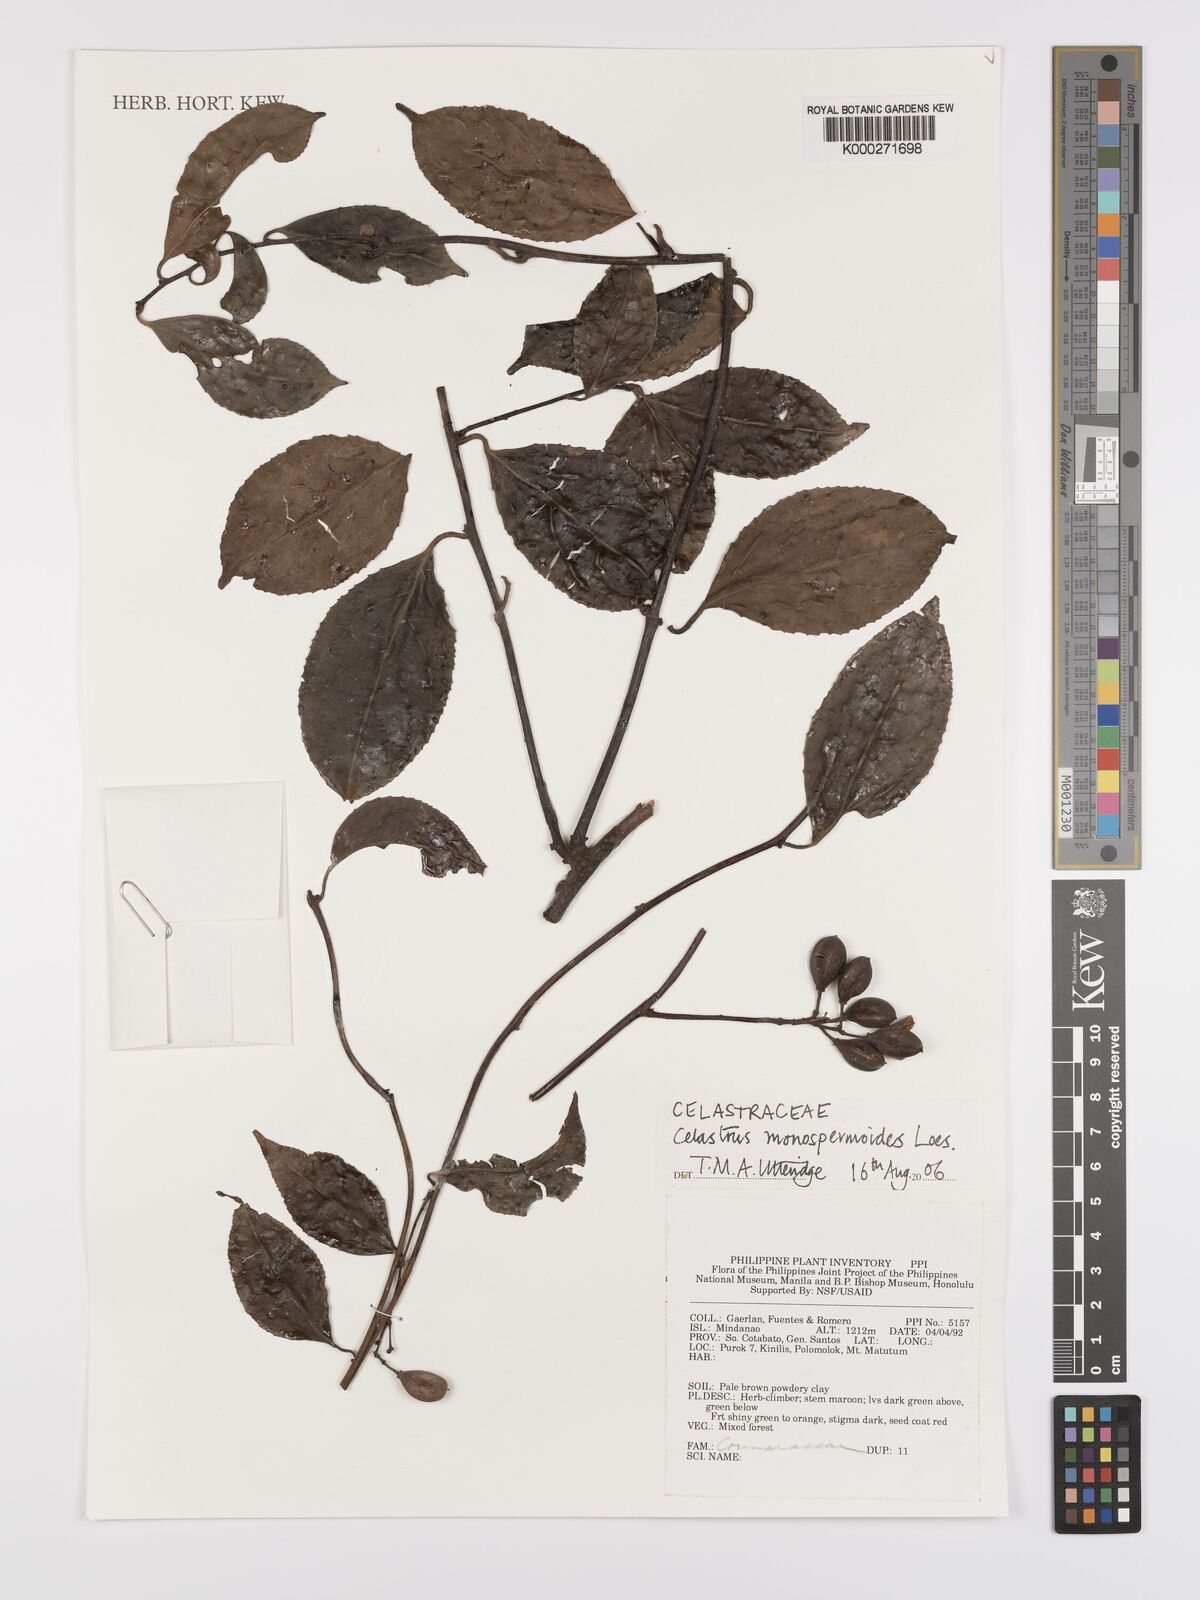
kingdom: Plantae
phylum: Tracheophyta
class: Magnoliopsida
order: Celastrales
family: Celastraceae
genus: Celastrus
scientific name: Celastrus monospermoides
